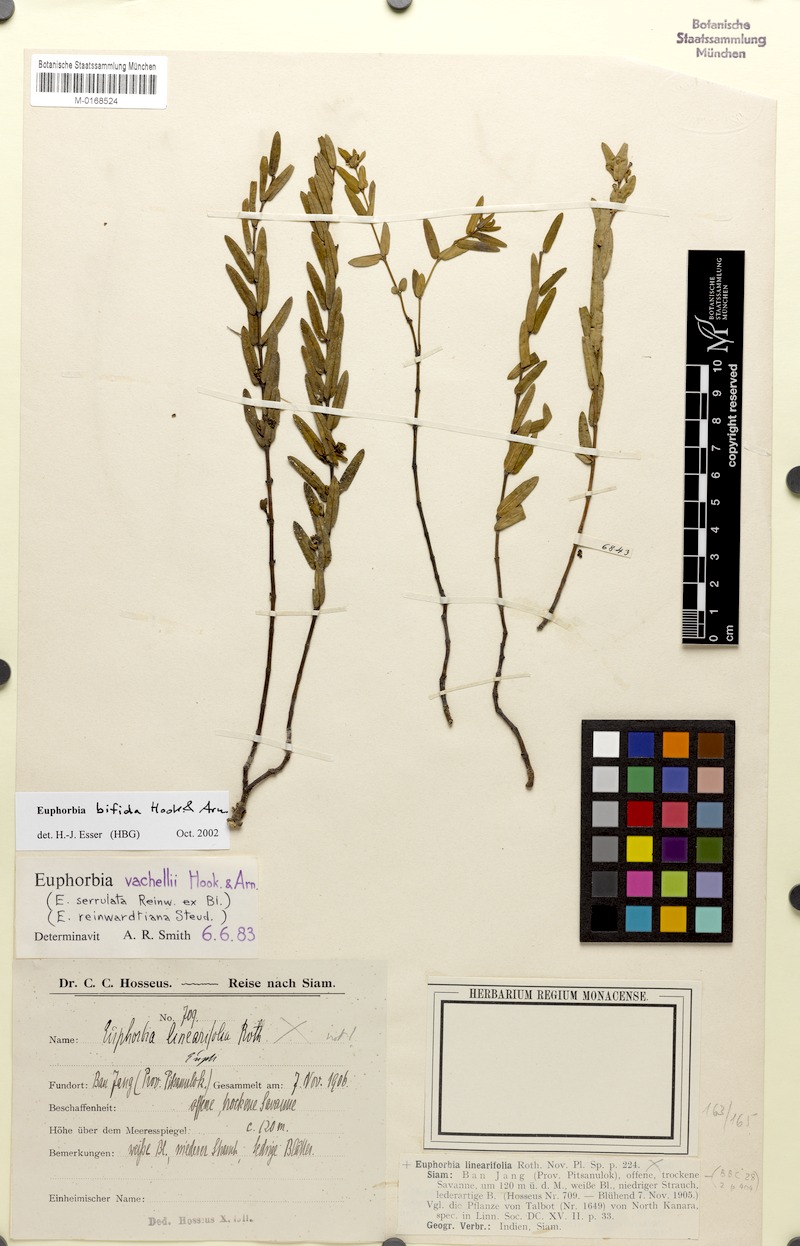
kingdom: Plantae
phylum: Tracheophyta
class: Magnoliopsida
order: Malpighiales
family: Euphorbiaceae
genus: Euphorbia
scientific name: Euphorbia bifida
